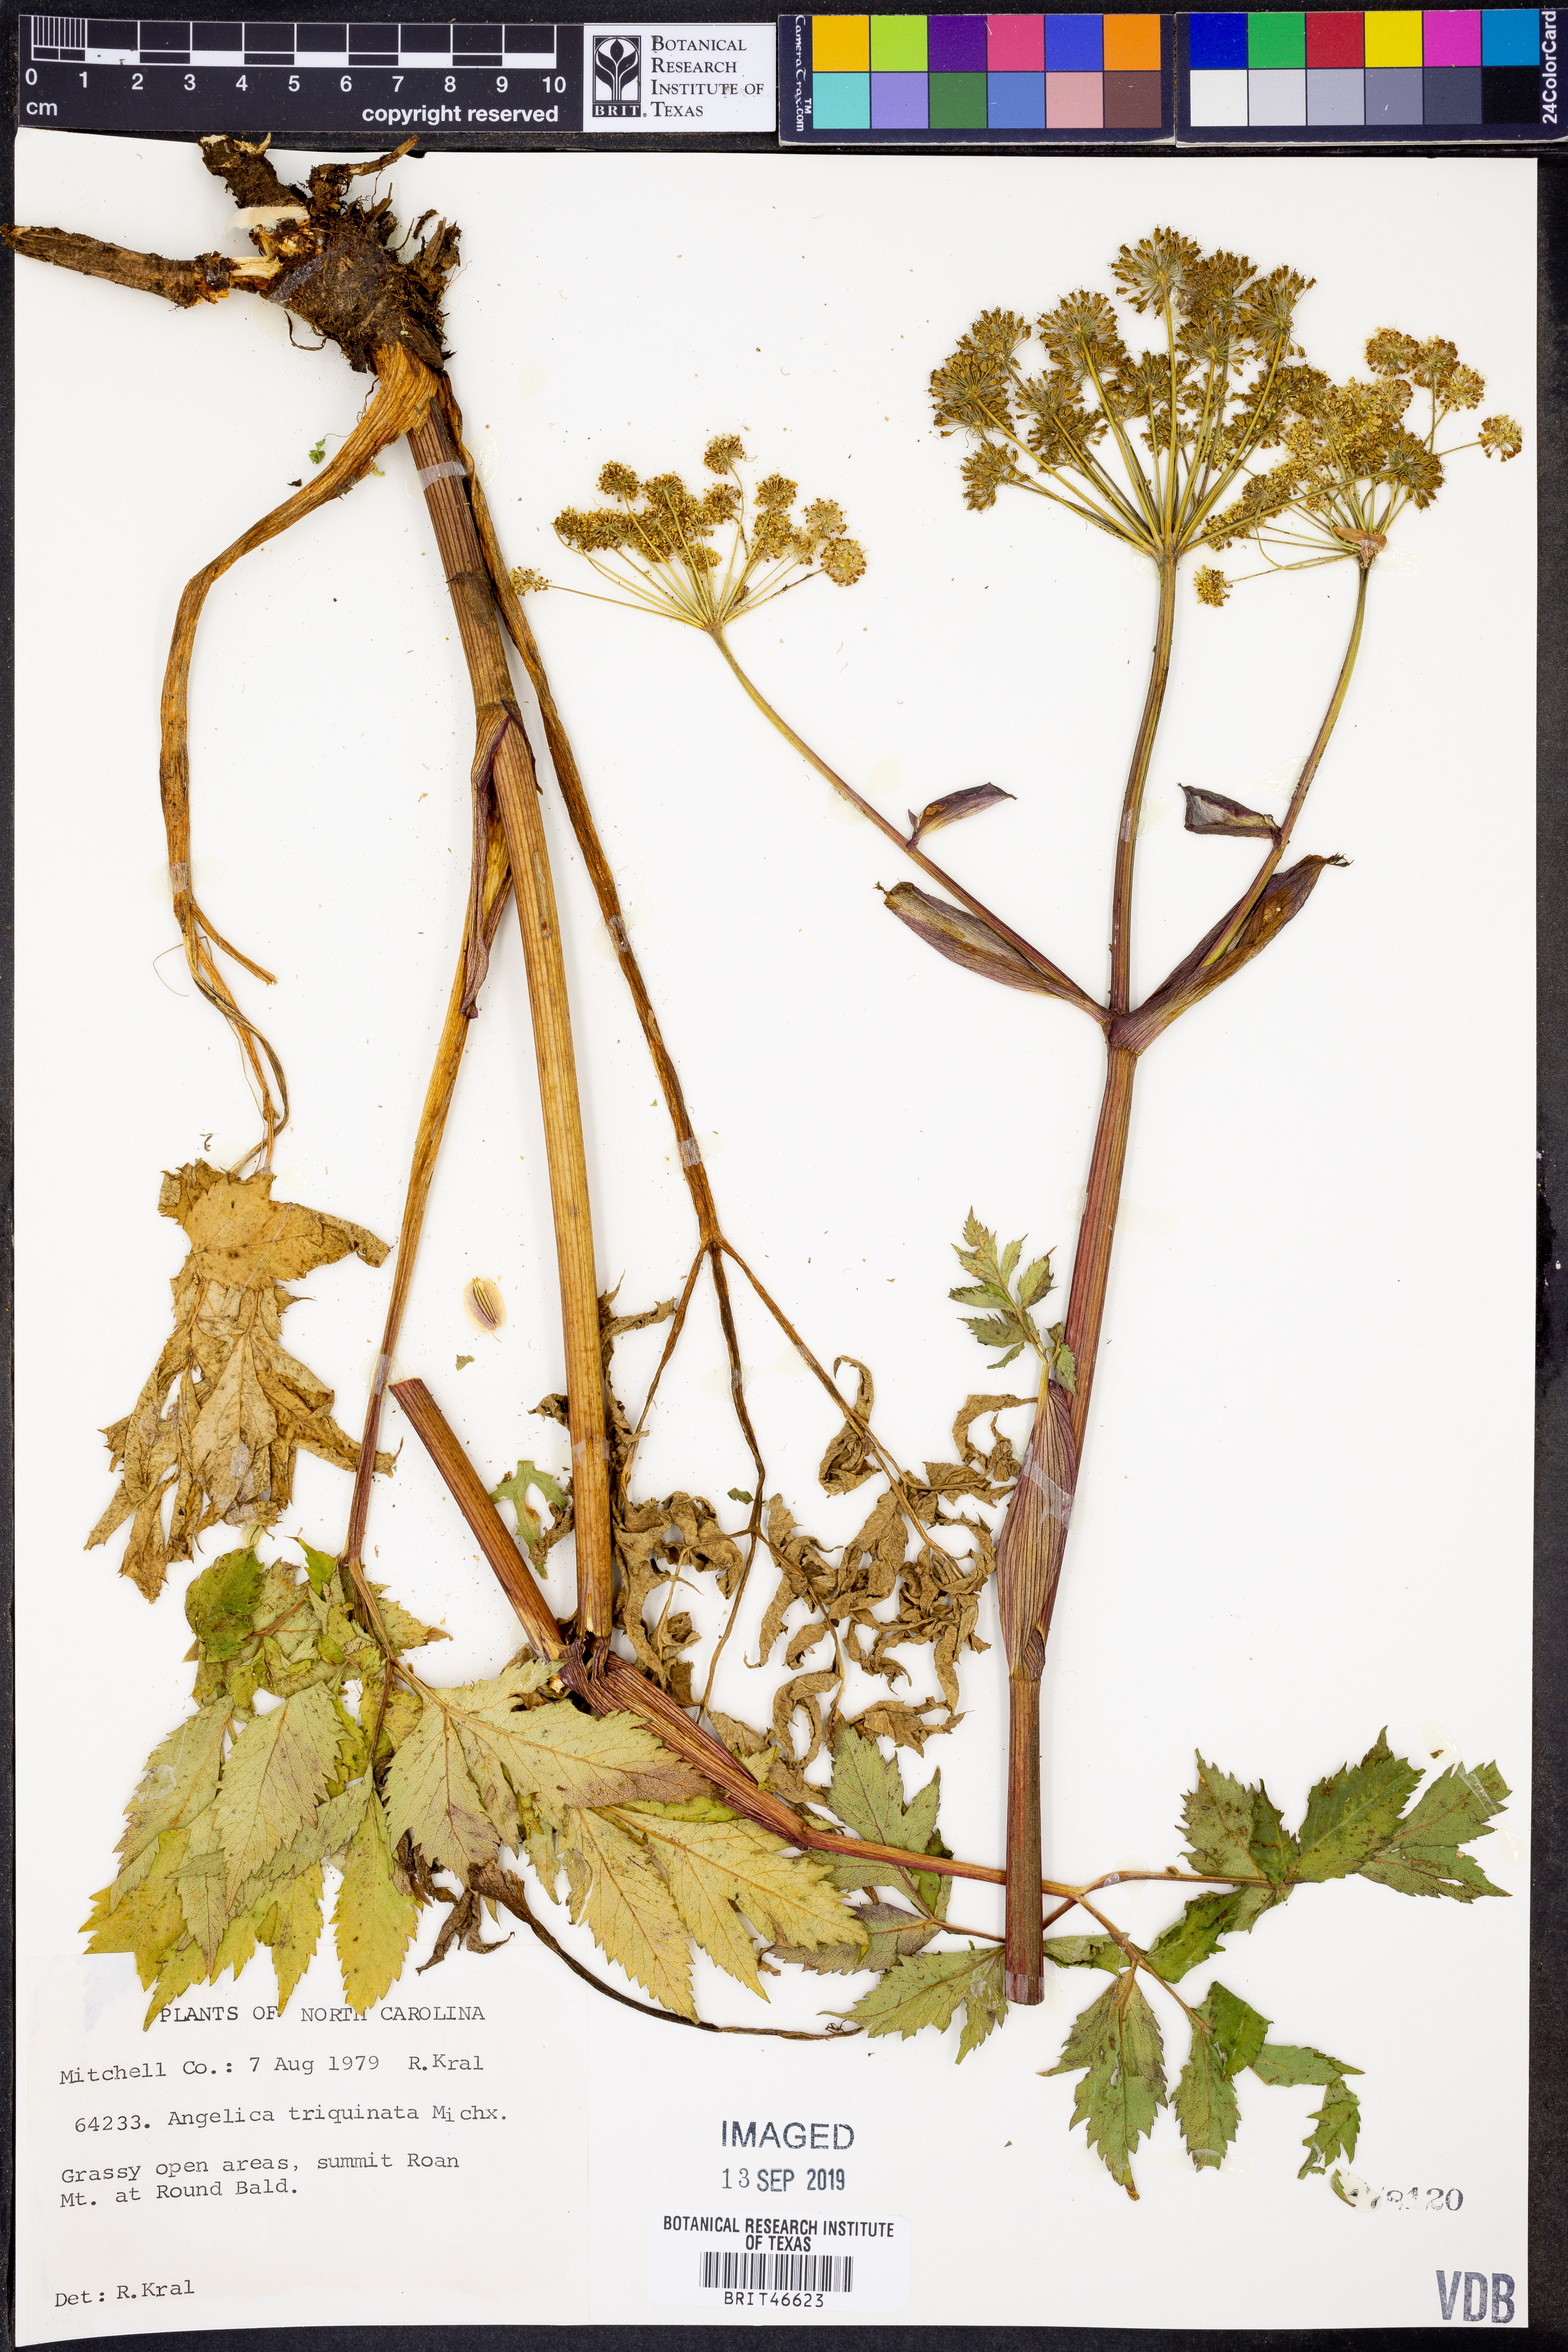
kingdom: Plantae
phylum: Tracheophyta
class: Magnoliopsida
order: Apiales
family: Apiaceae
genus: Angelica
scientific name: Angelica triquinata
